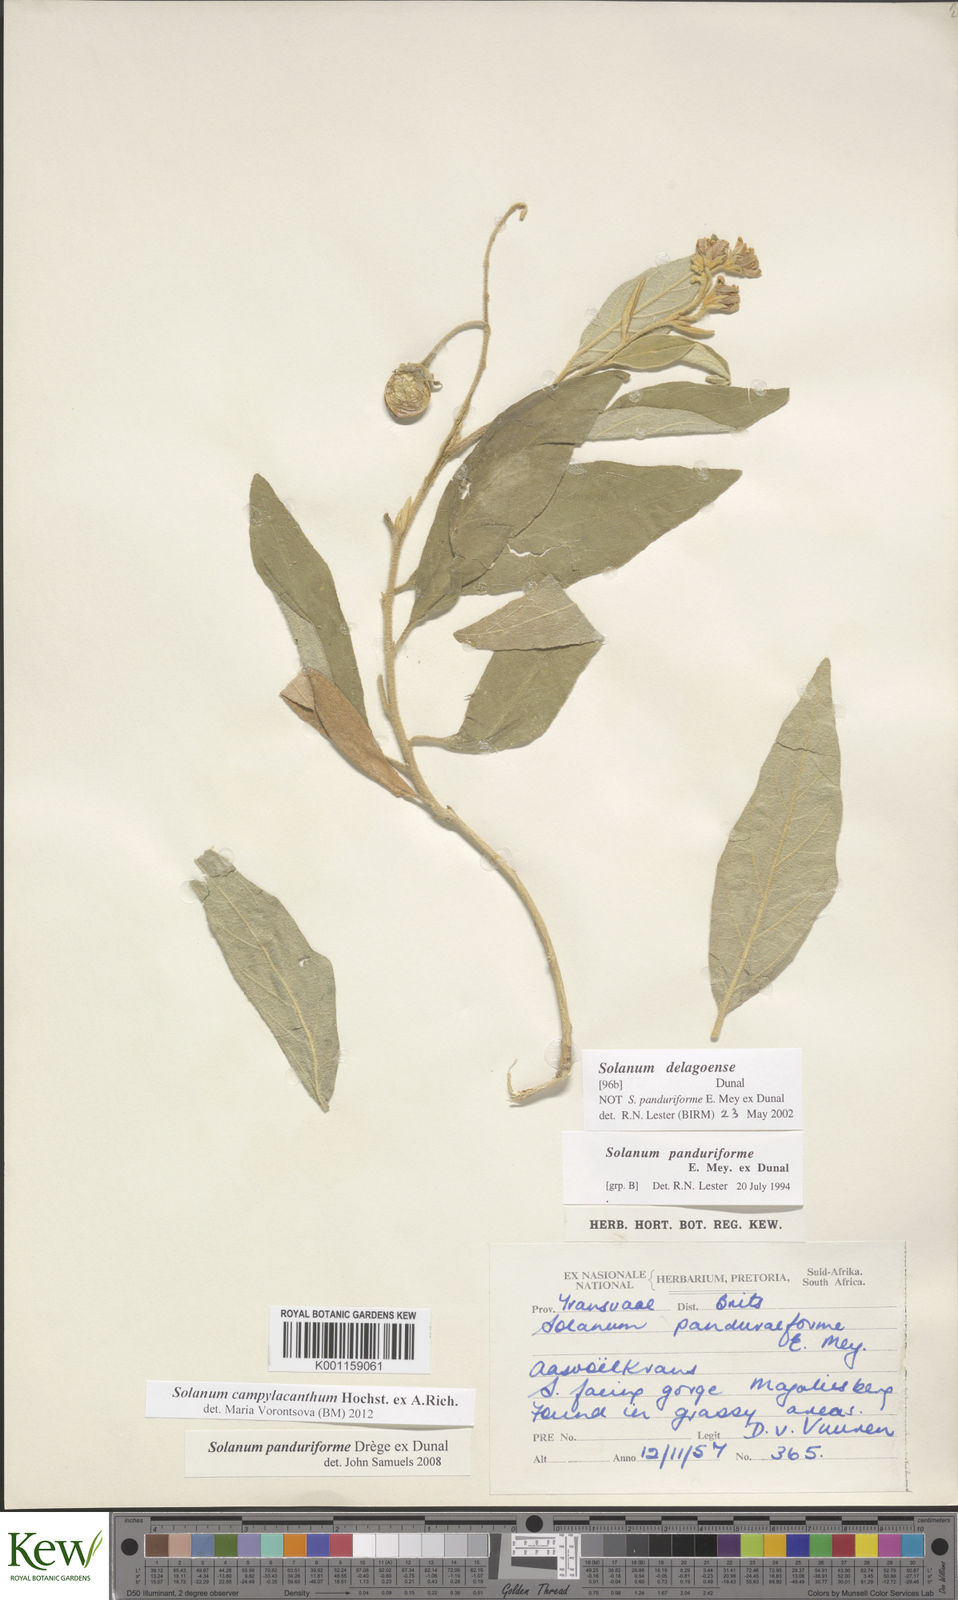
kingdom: Plantae
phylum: Tracheophyta
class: Magnoliopsida
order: Solanales
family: Solanaceae
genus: Solanum
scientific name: Solanum campylacanthum
